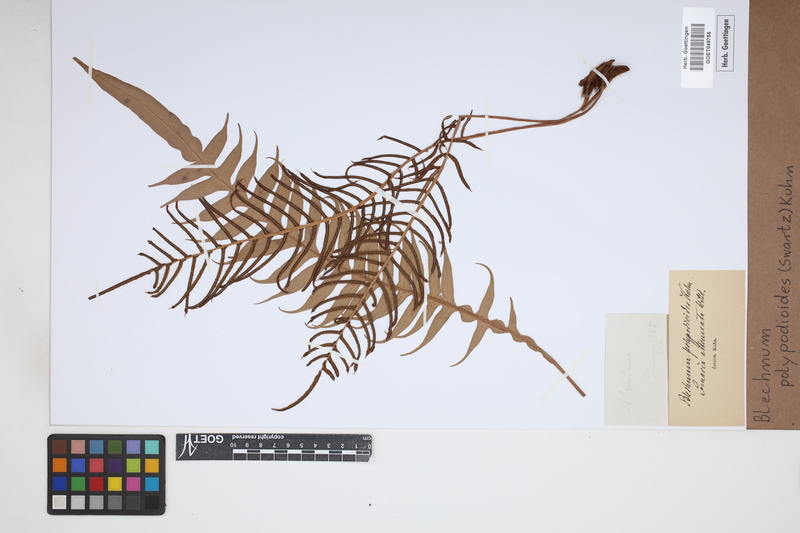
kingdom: Plantae
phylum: Tracheophyta
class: Polypodiopsida
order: Polypodiales
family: Blechnaceae
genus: Lomaridium
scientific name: Lomaridium fragile
